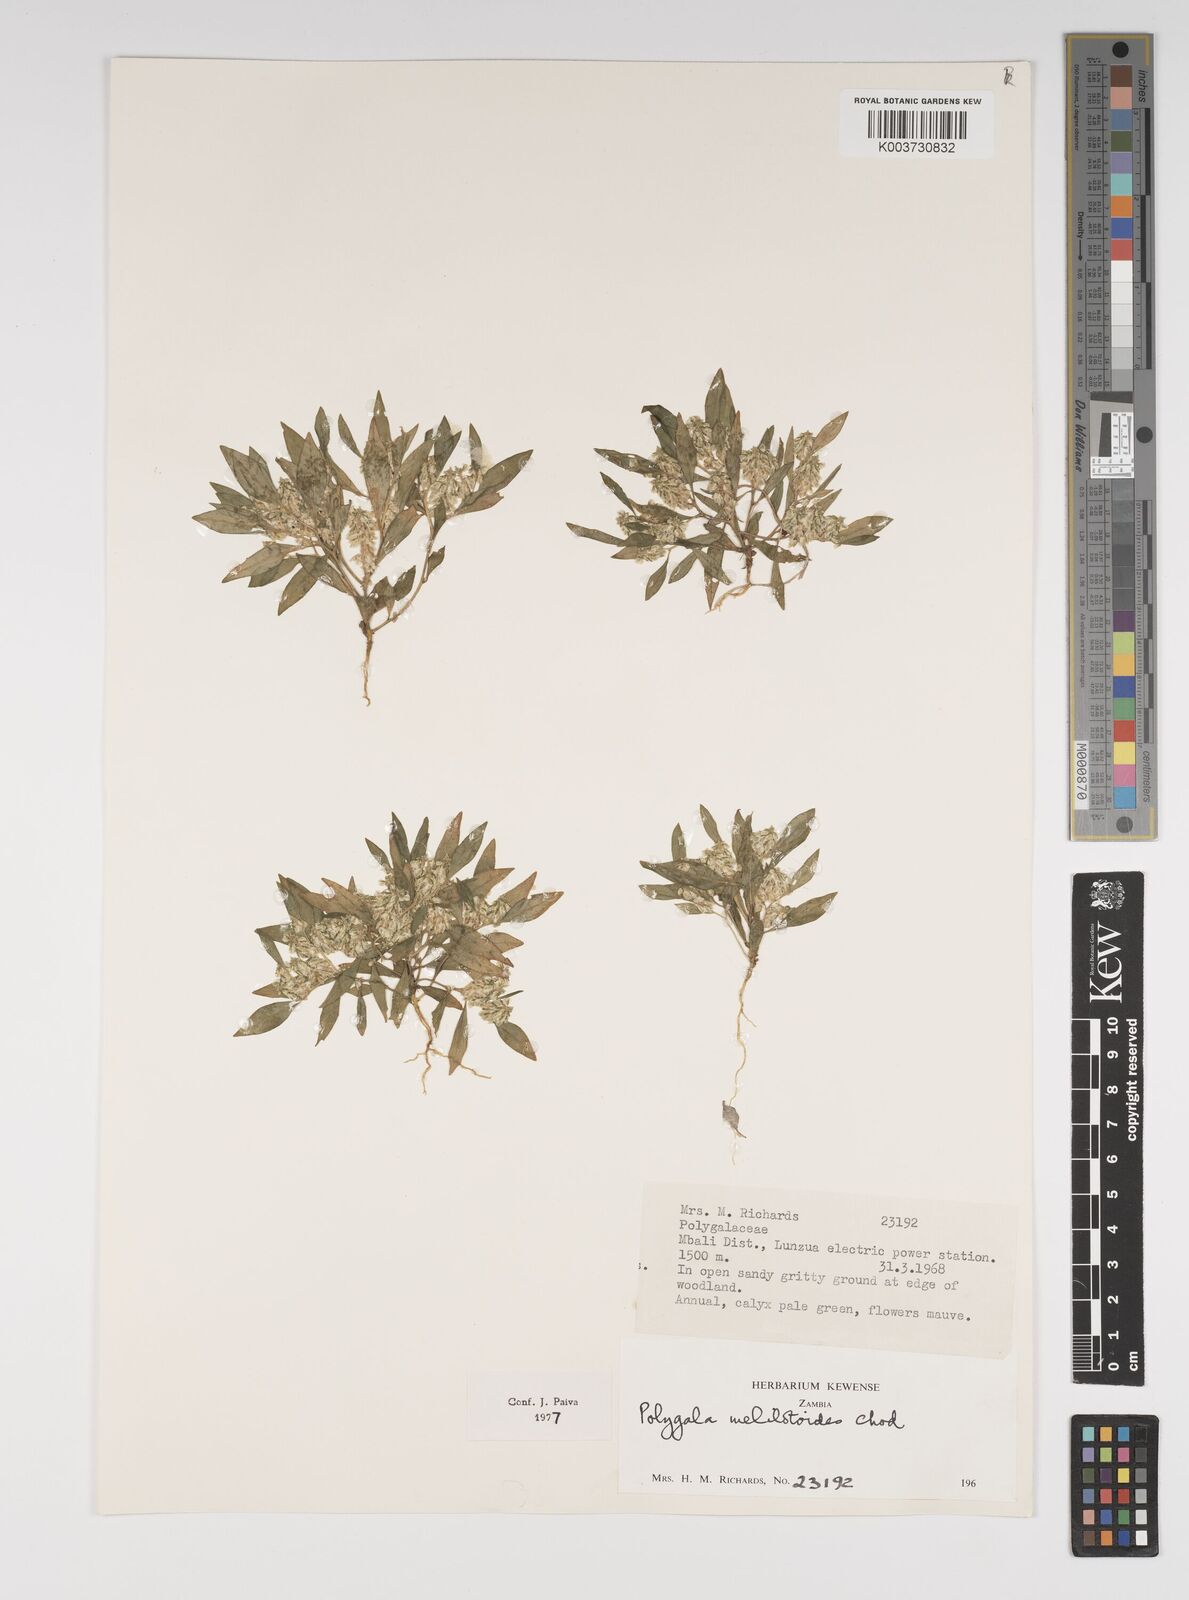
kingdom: Plantae
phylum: Tracheophyta
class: Magnoliopsida
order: Fabales
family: Polygalaceae
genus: Polygala
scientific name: Polygala melilotoides
